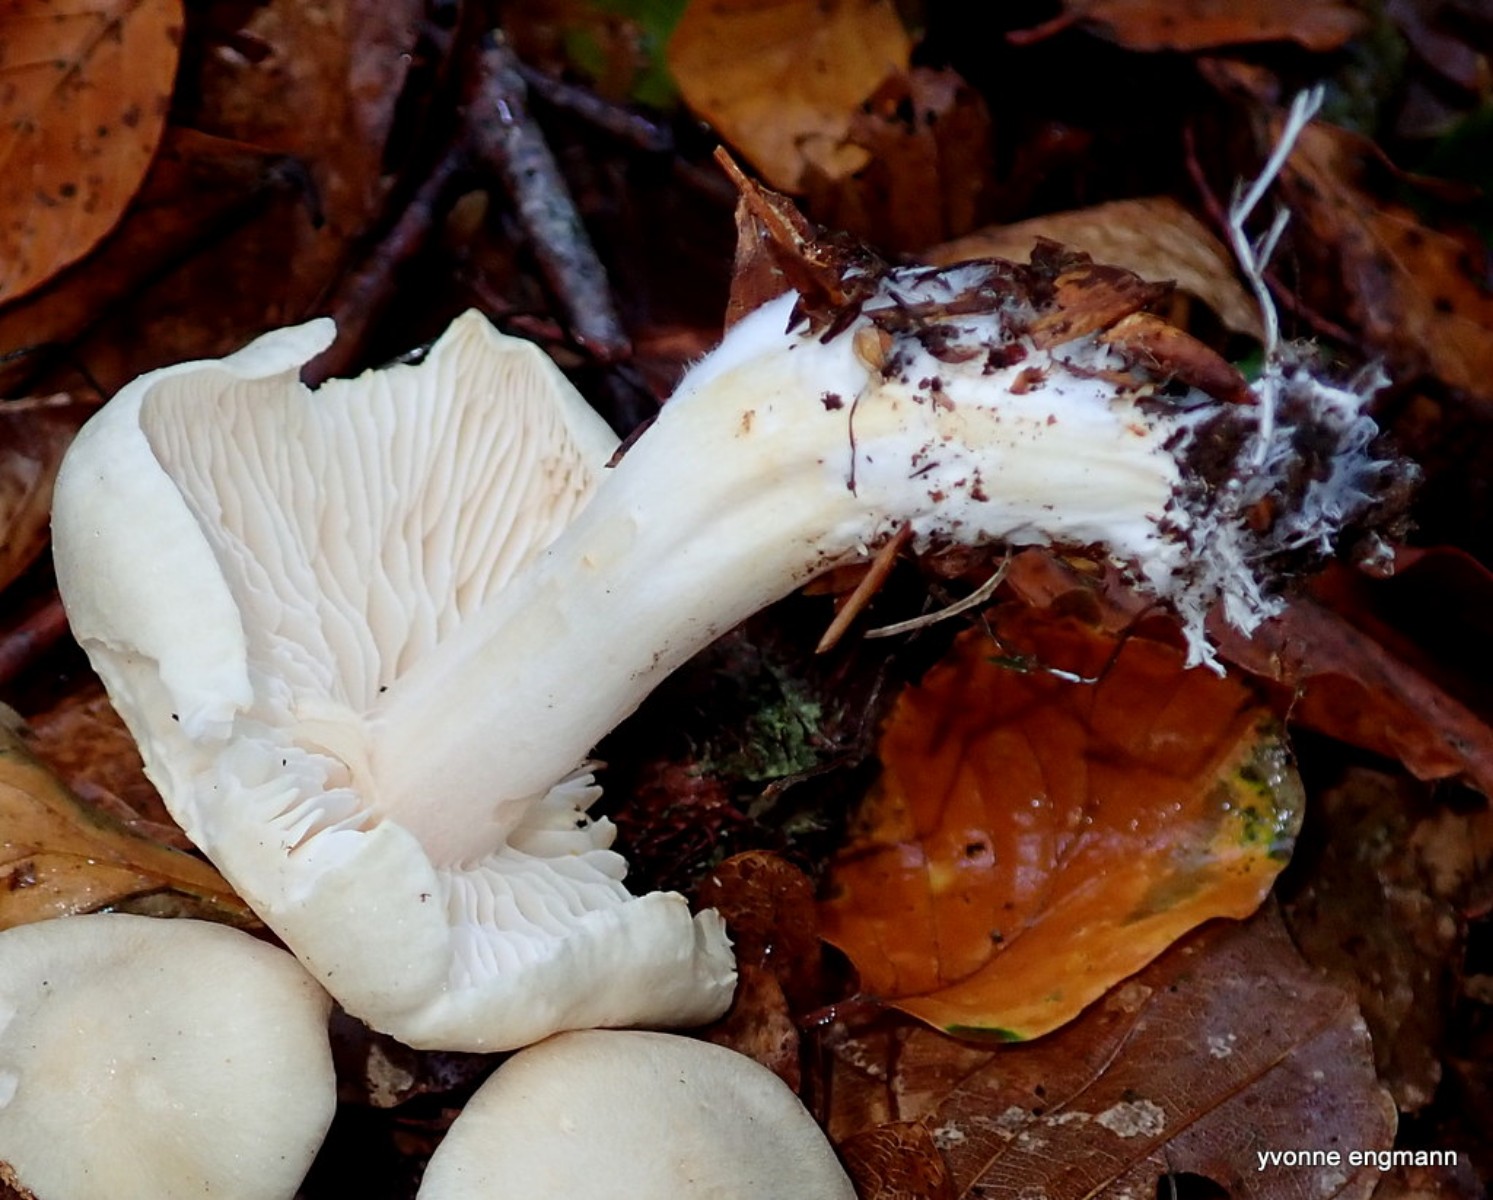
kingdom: Fungi
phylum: Basidiomycota
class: Agaricomycetes
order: Agaricales
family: Tricholomataceae
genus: Tricholoma
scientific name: Tricholoma lascivum
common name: stinkende ridderhat
